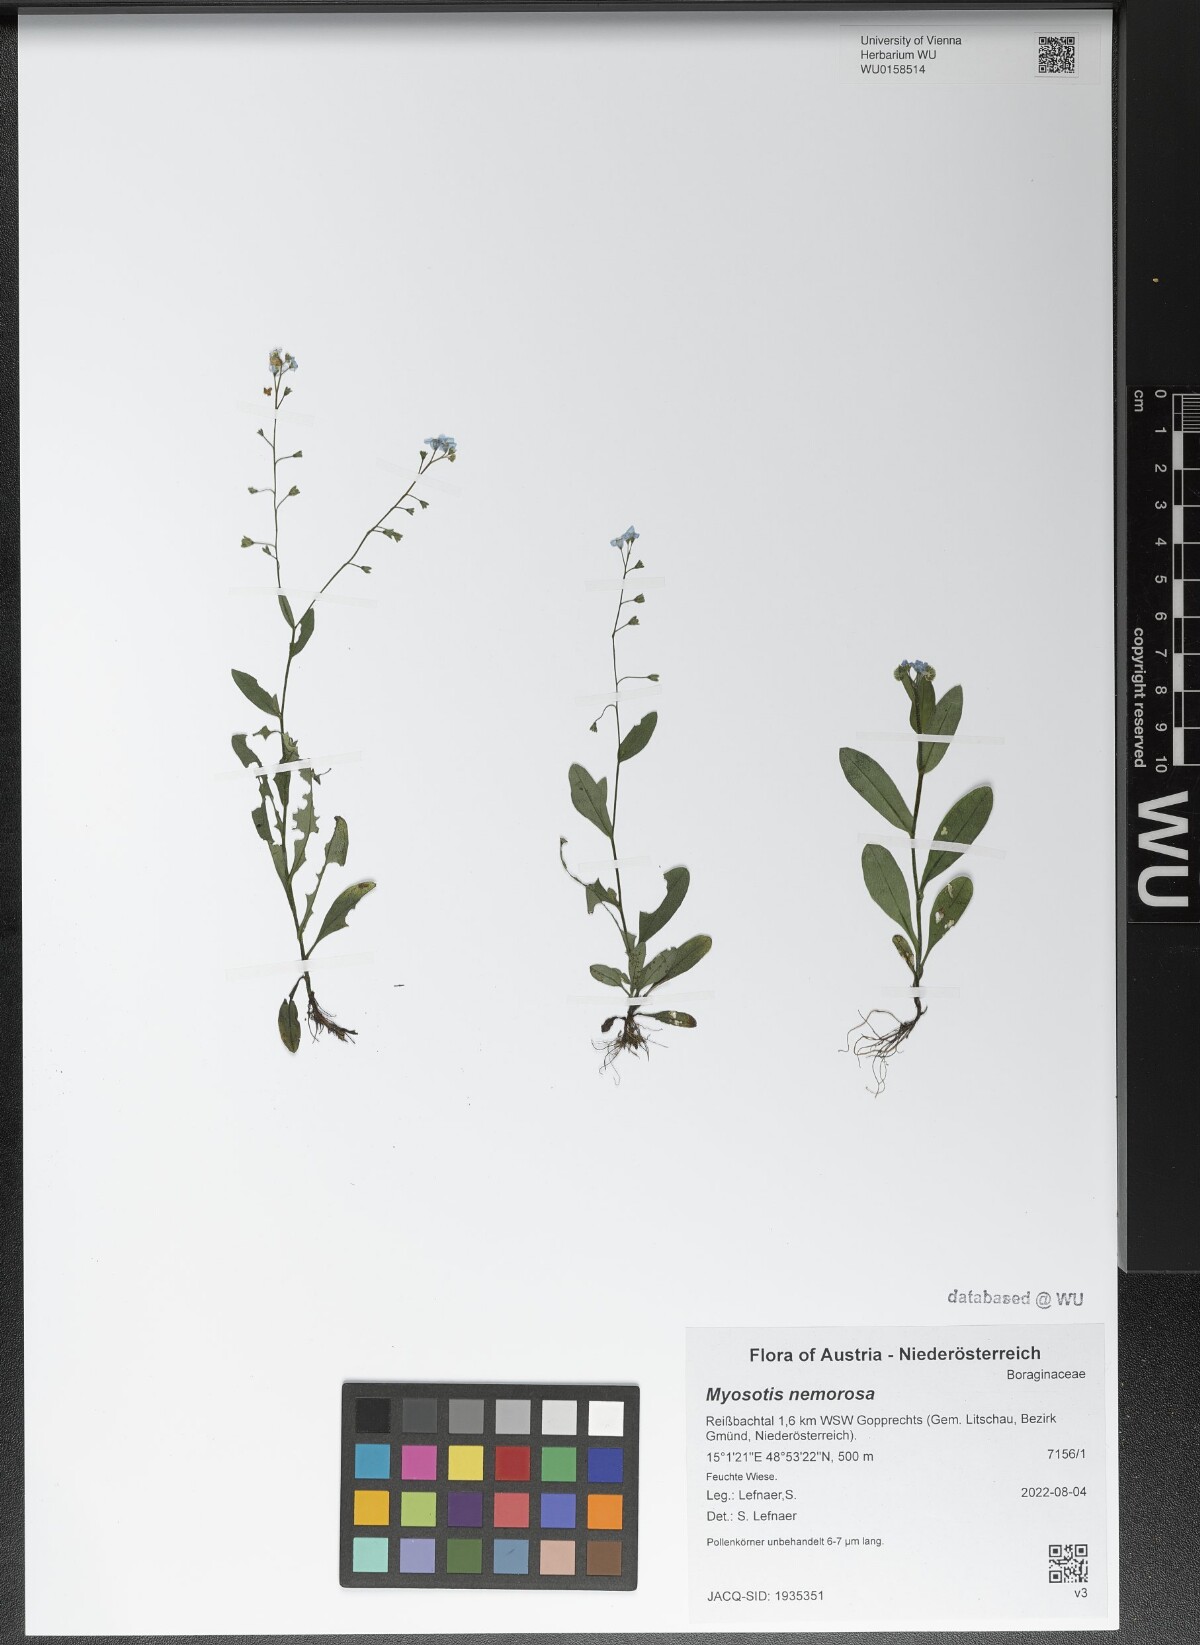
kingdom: Plantae
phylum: Tracheophyta
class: Magnoliopsida
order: Boraginales
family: Boraginaceae
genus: Myosotis
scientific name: Myosotis nemorosa
